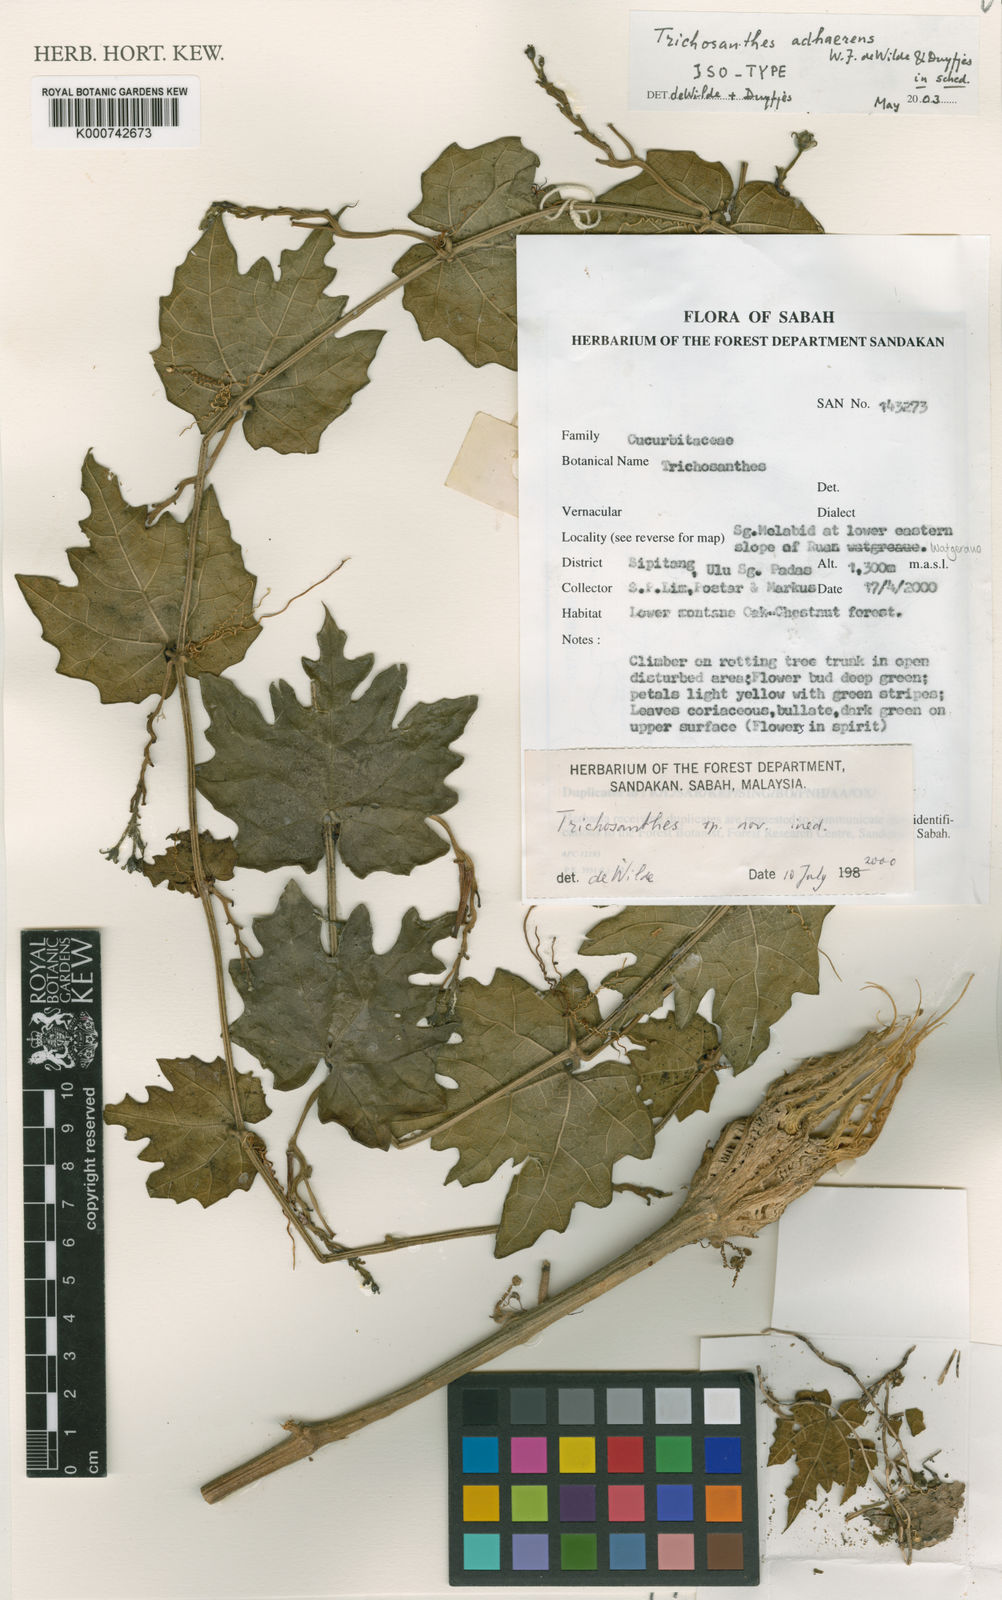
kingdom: Plantae
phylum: Tracheophyta
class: Magnoliopsida
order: Cucurbitales
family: Cucurbitaceae
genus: Trichosanthes
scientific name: Trichosanthes adhaerens
